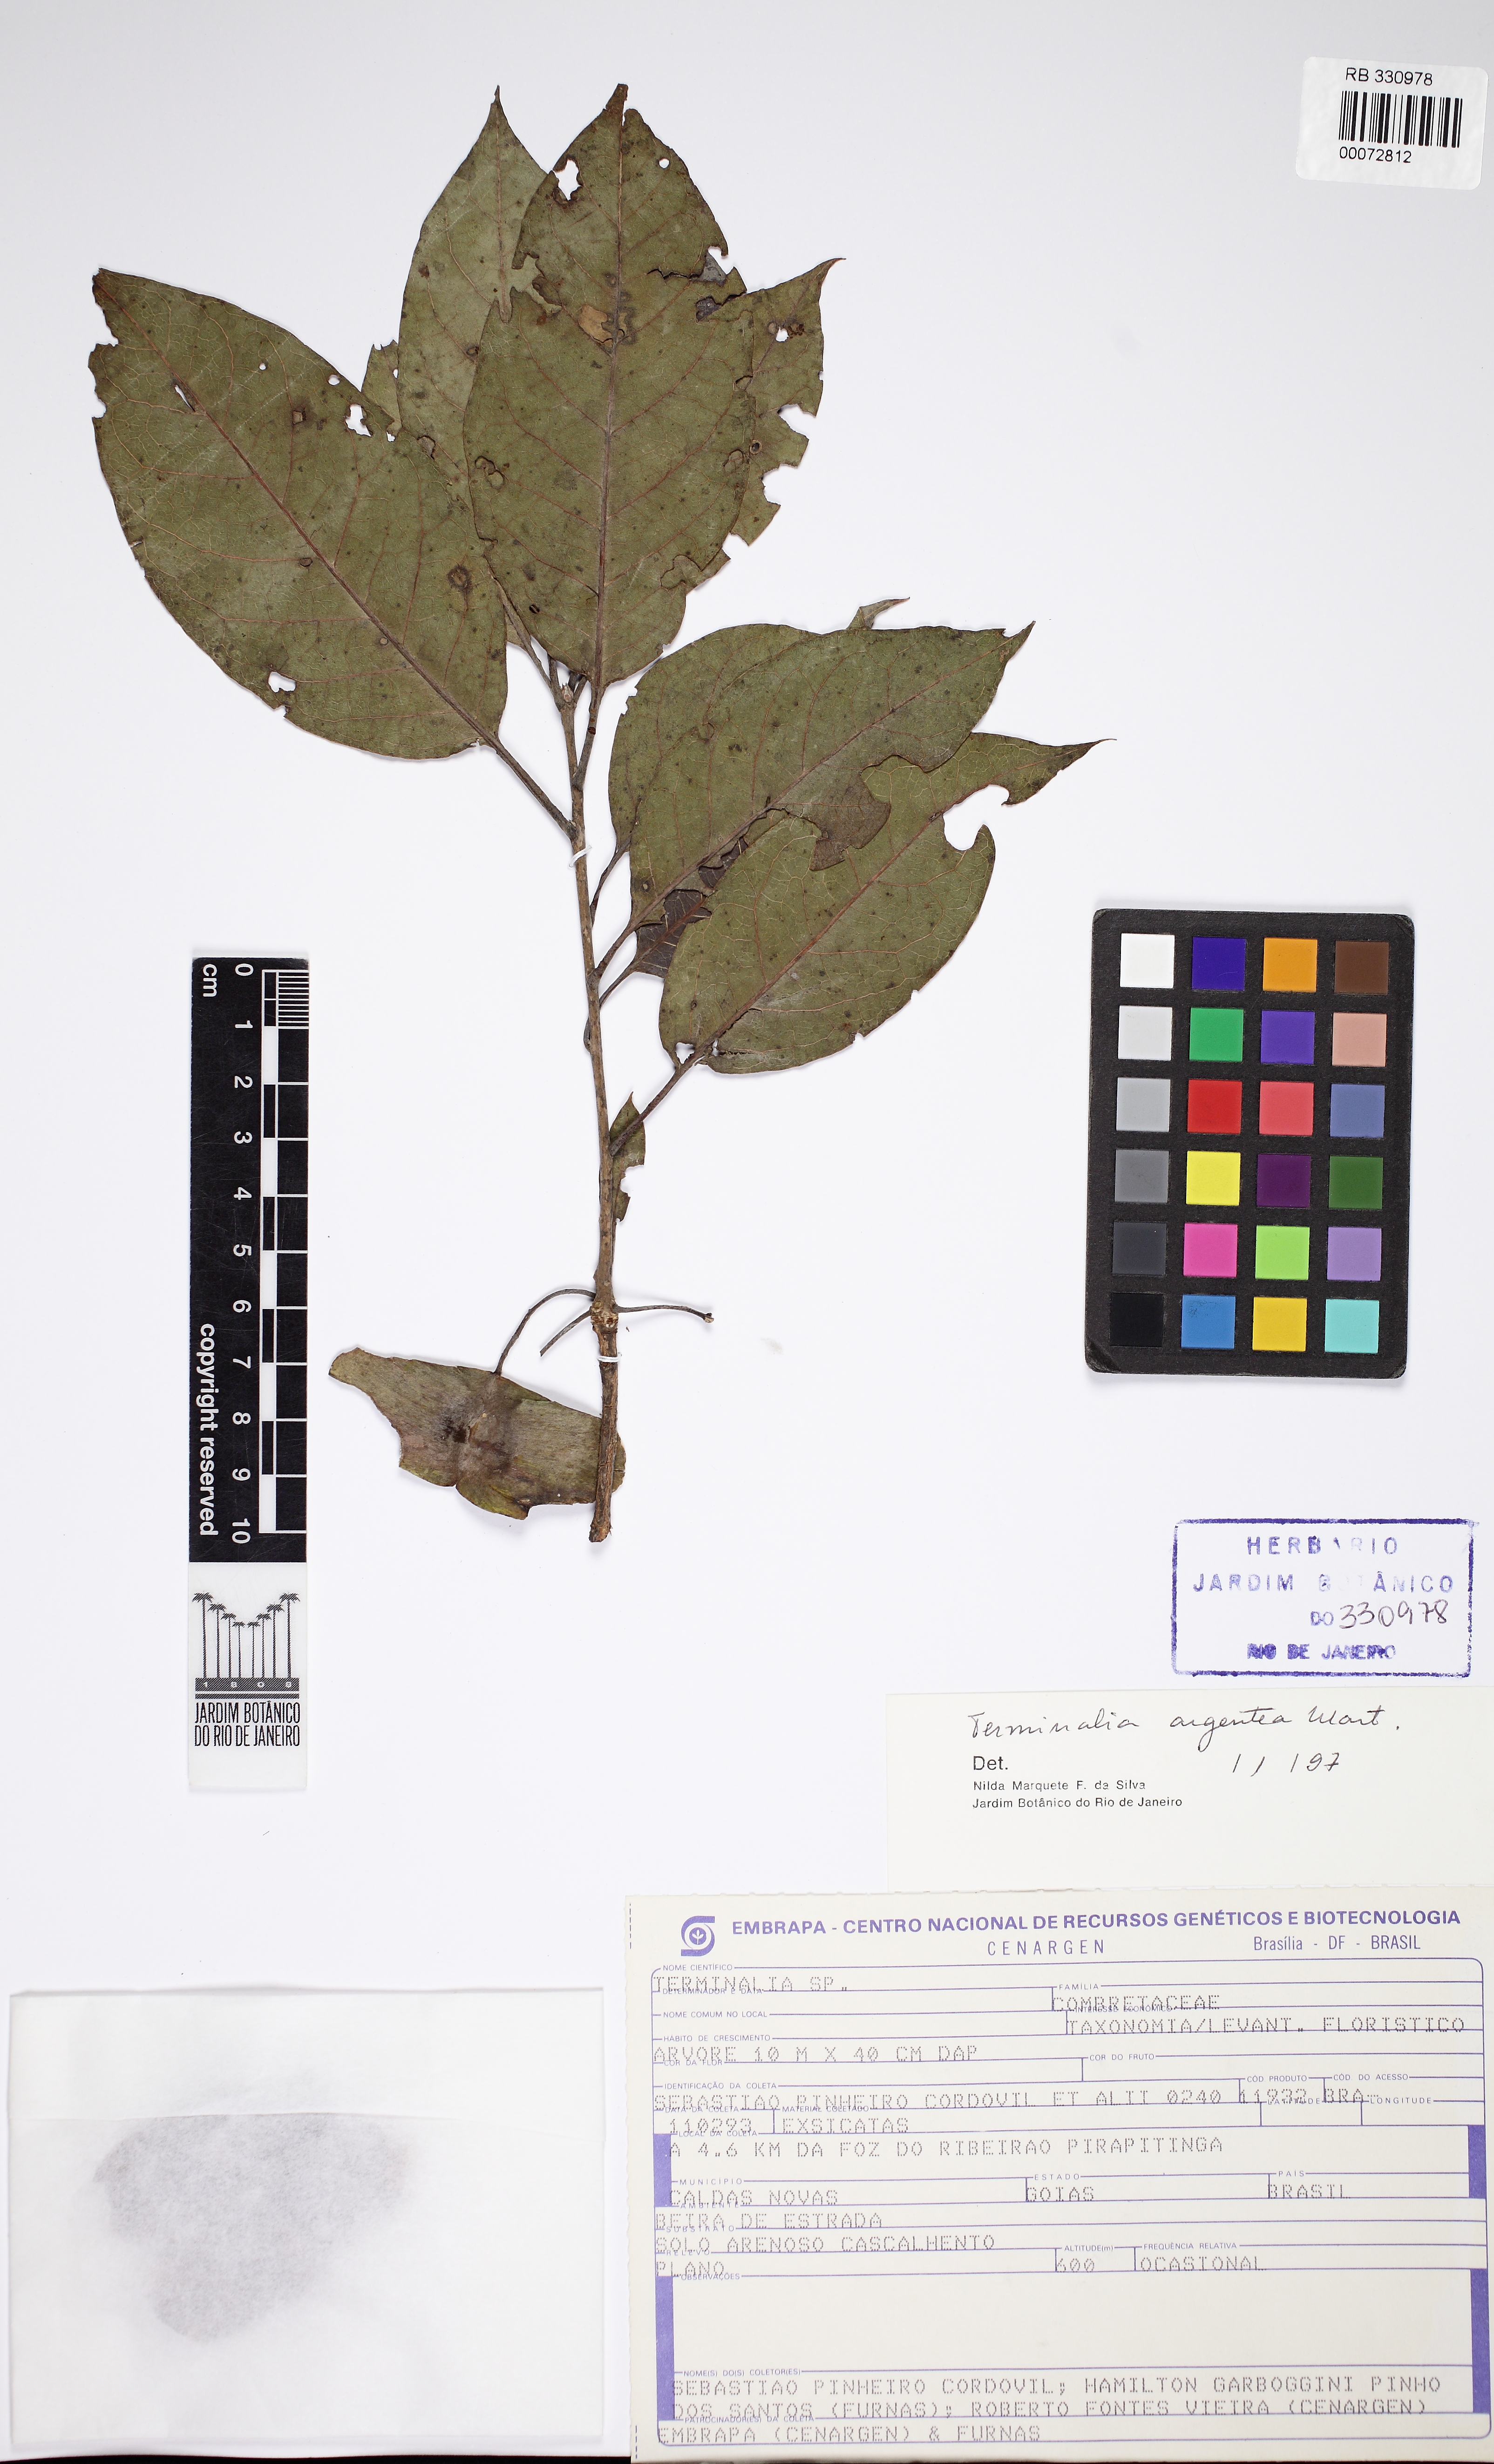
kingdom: Plantae
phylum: Tracheophyta
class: Magnoliopsida
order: Myrtales
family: Combretaceae
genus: Terminalia
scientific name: Terminalia argentea
